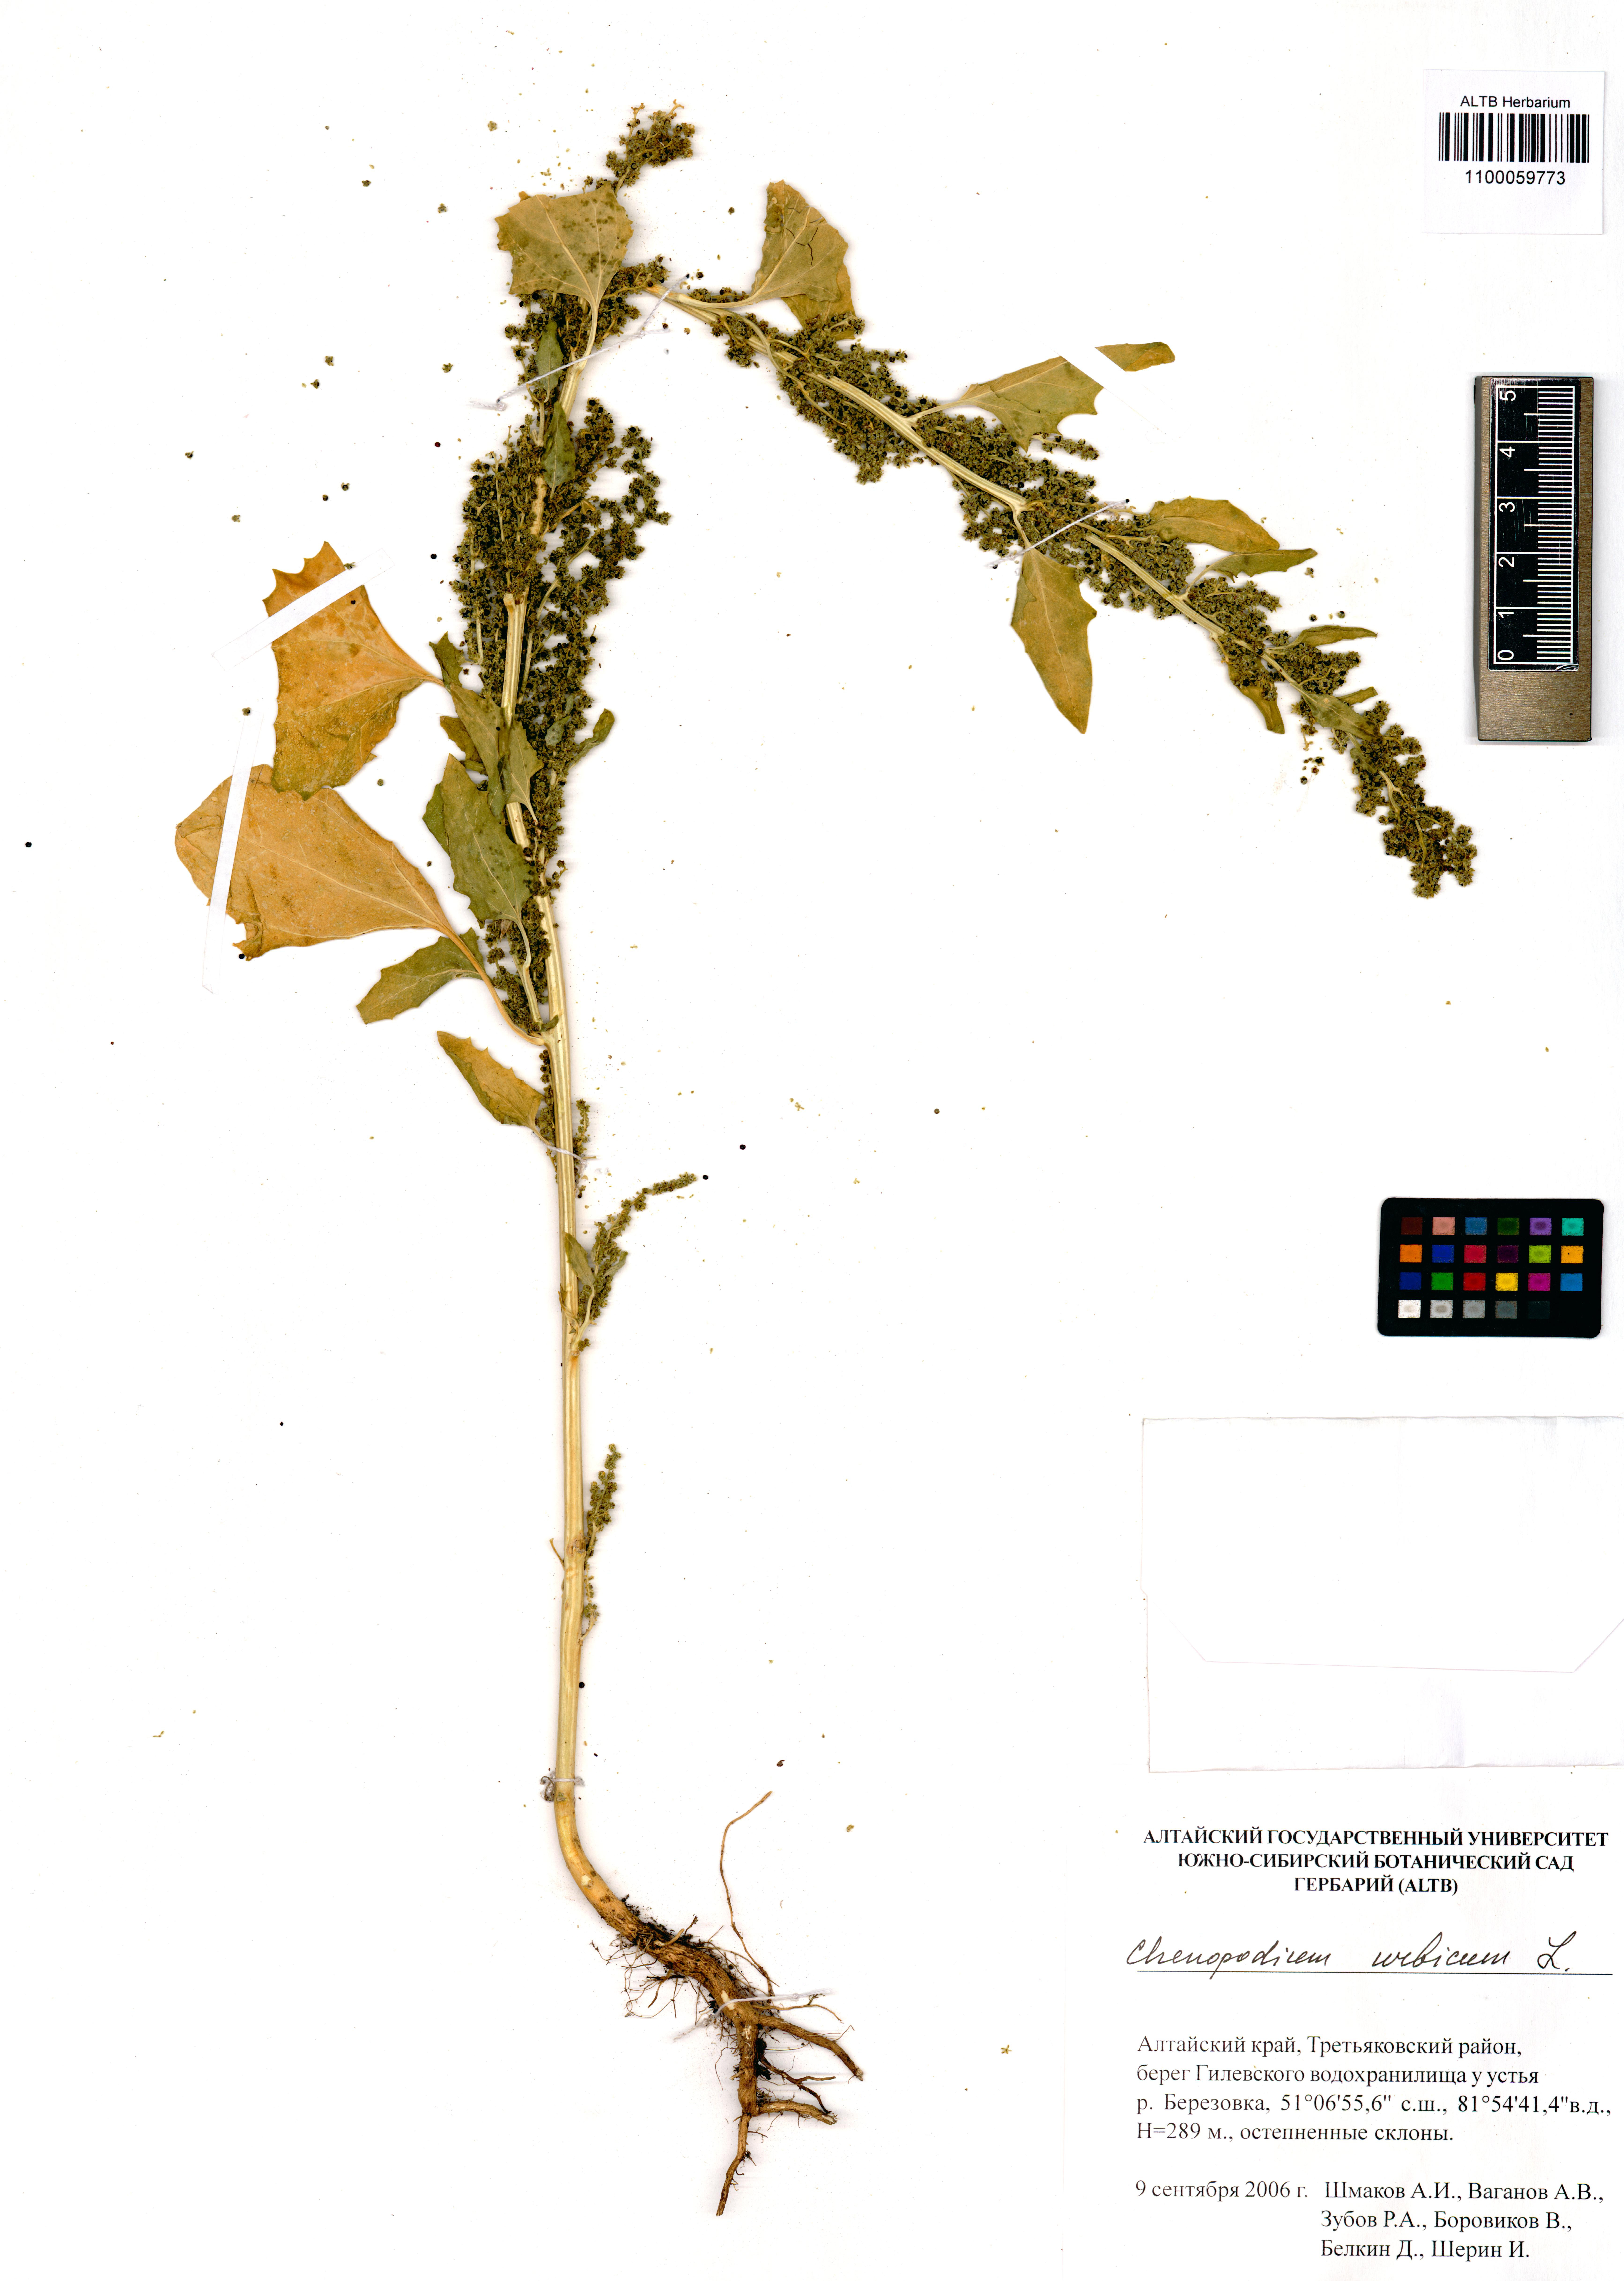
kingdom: Plantae
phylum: Tracheophyta
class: Magnoliopsida
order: Caryophyllales
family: Amaranthaceae
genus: Oxybasis
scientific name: Oxybasis urbica
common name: City goosefoot
